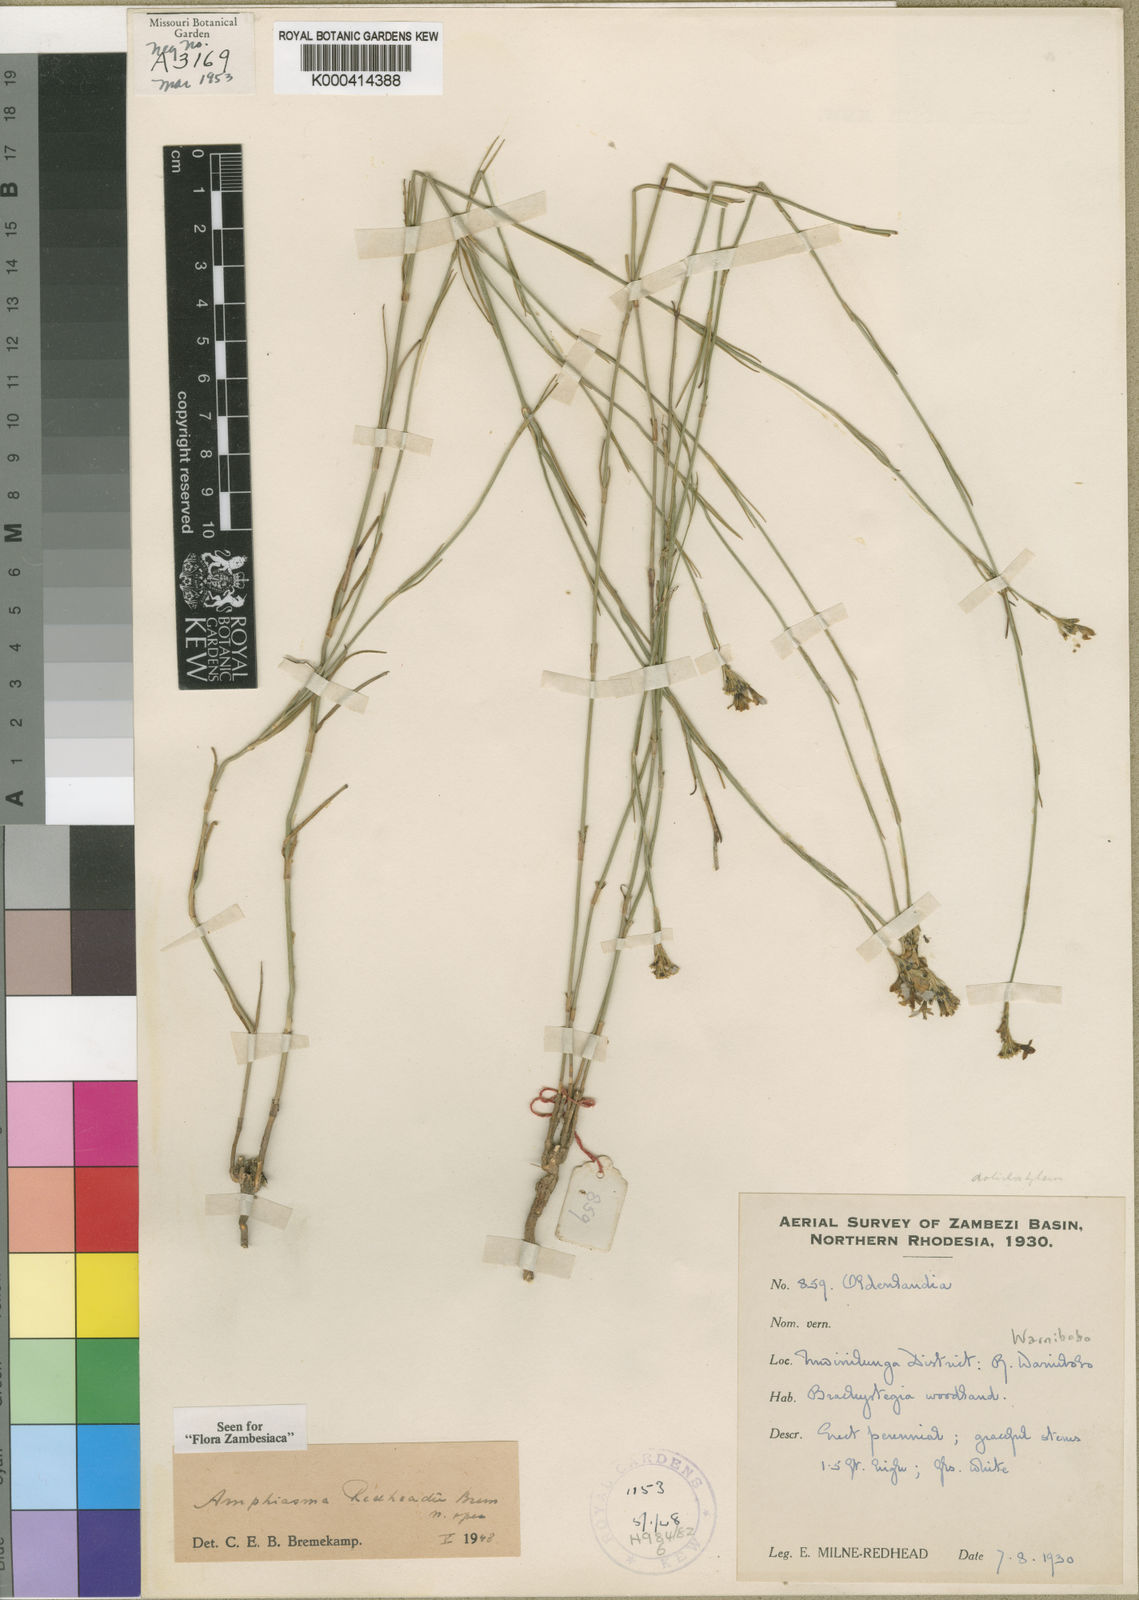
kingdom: Plantae
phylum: Tracheophyta
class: Magnoliopsida
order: Gentianales
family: Rubiaceae
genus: Amphiasma
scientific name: Amphiasma redheadii
